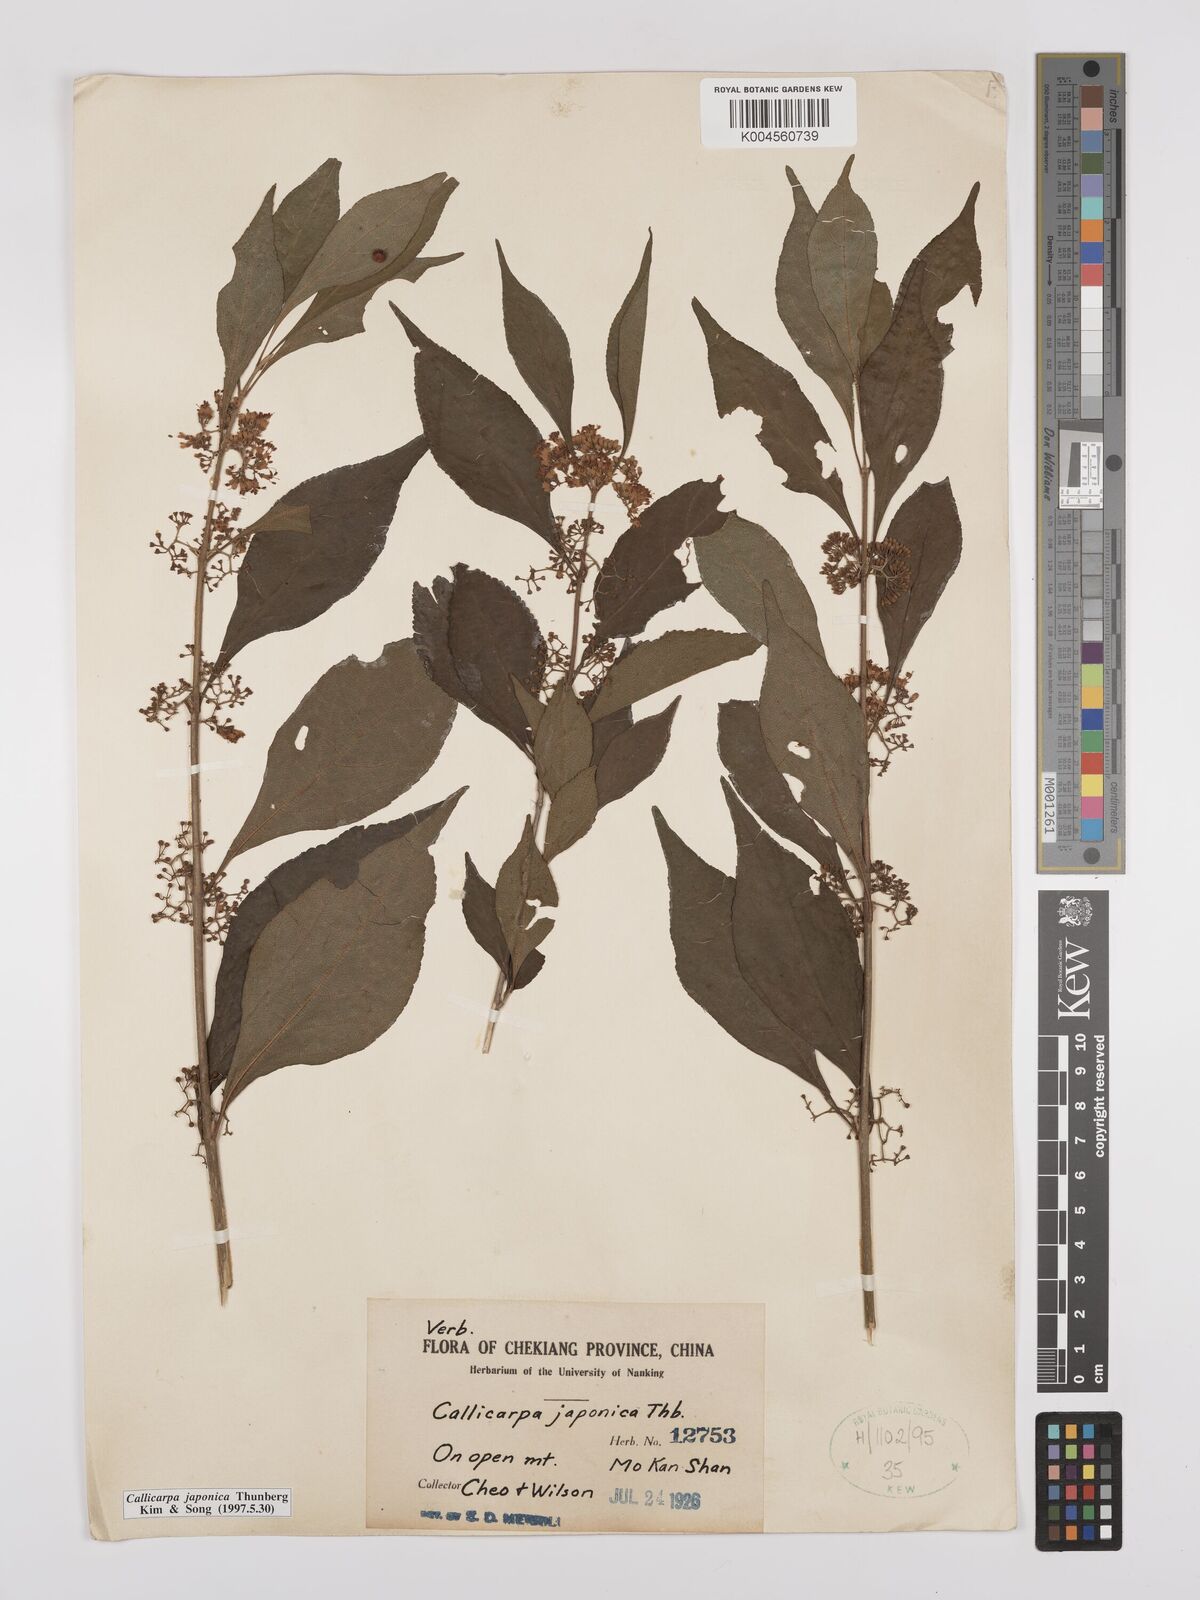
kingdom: Plantae
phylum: Tracheophyta
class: Magnoliopsida
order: Lamiales
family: Lamiaceae
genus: Callicarpa
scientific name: Callicarpa japonica
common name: Japanese beauty-berry
